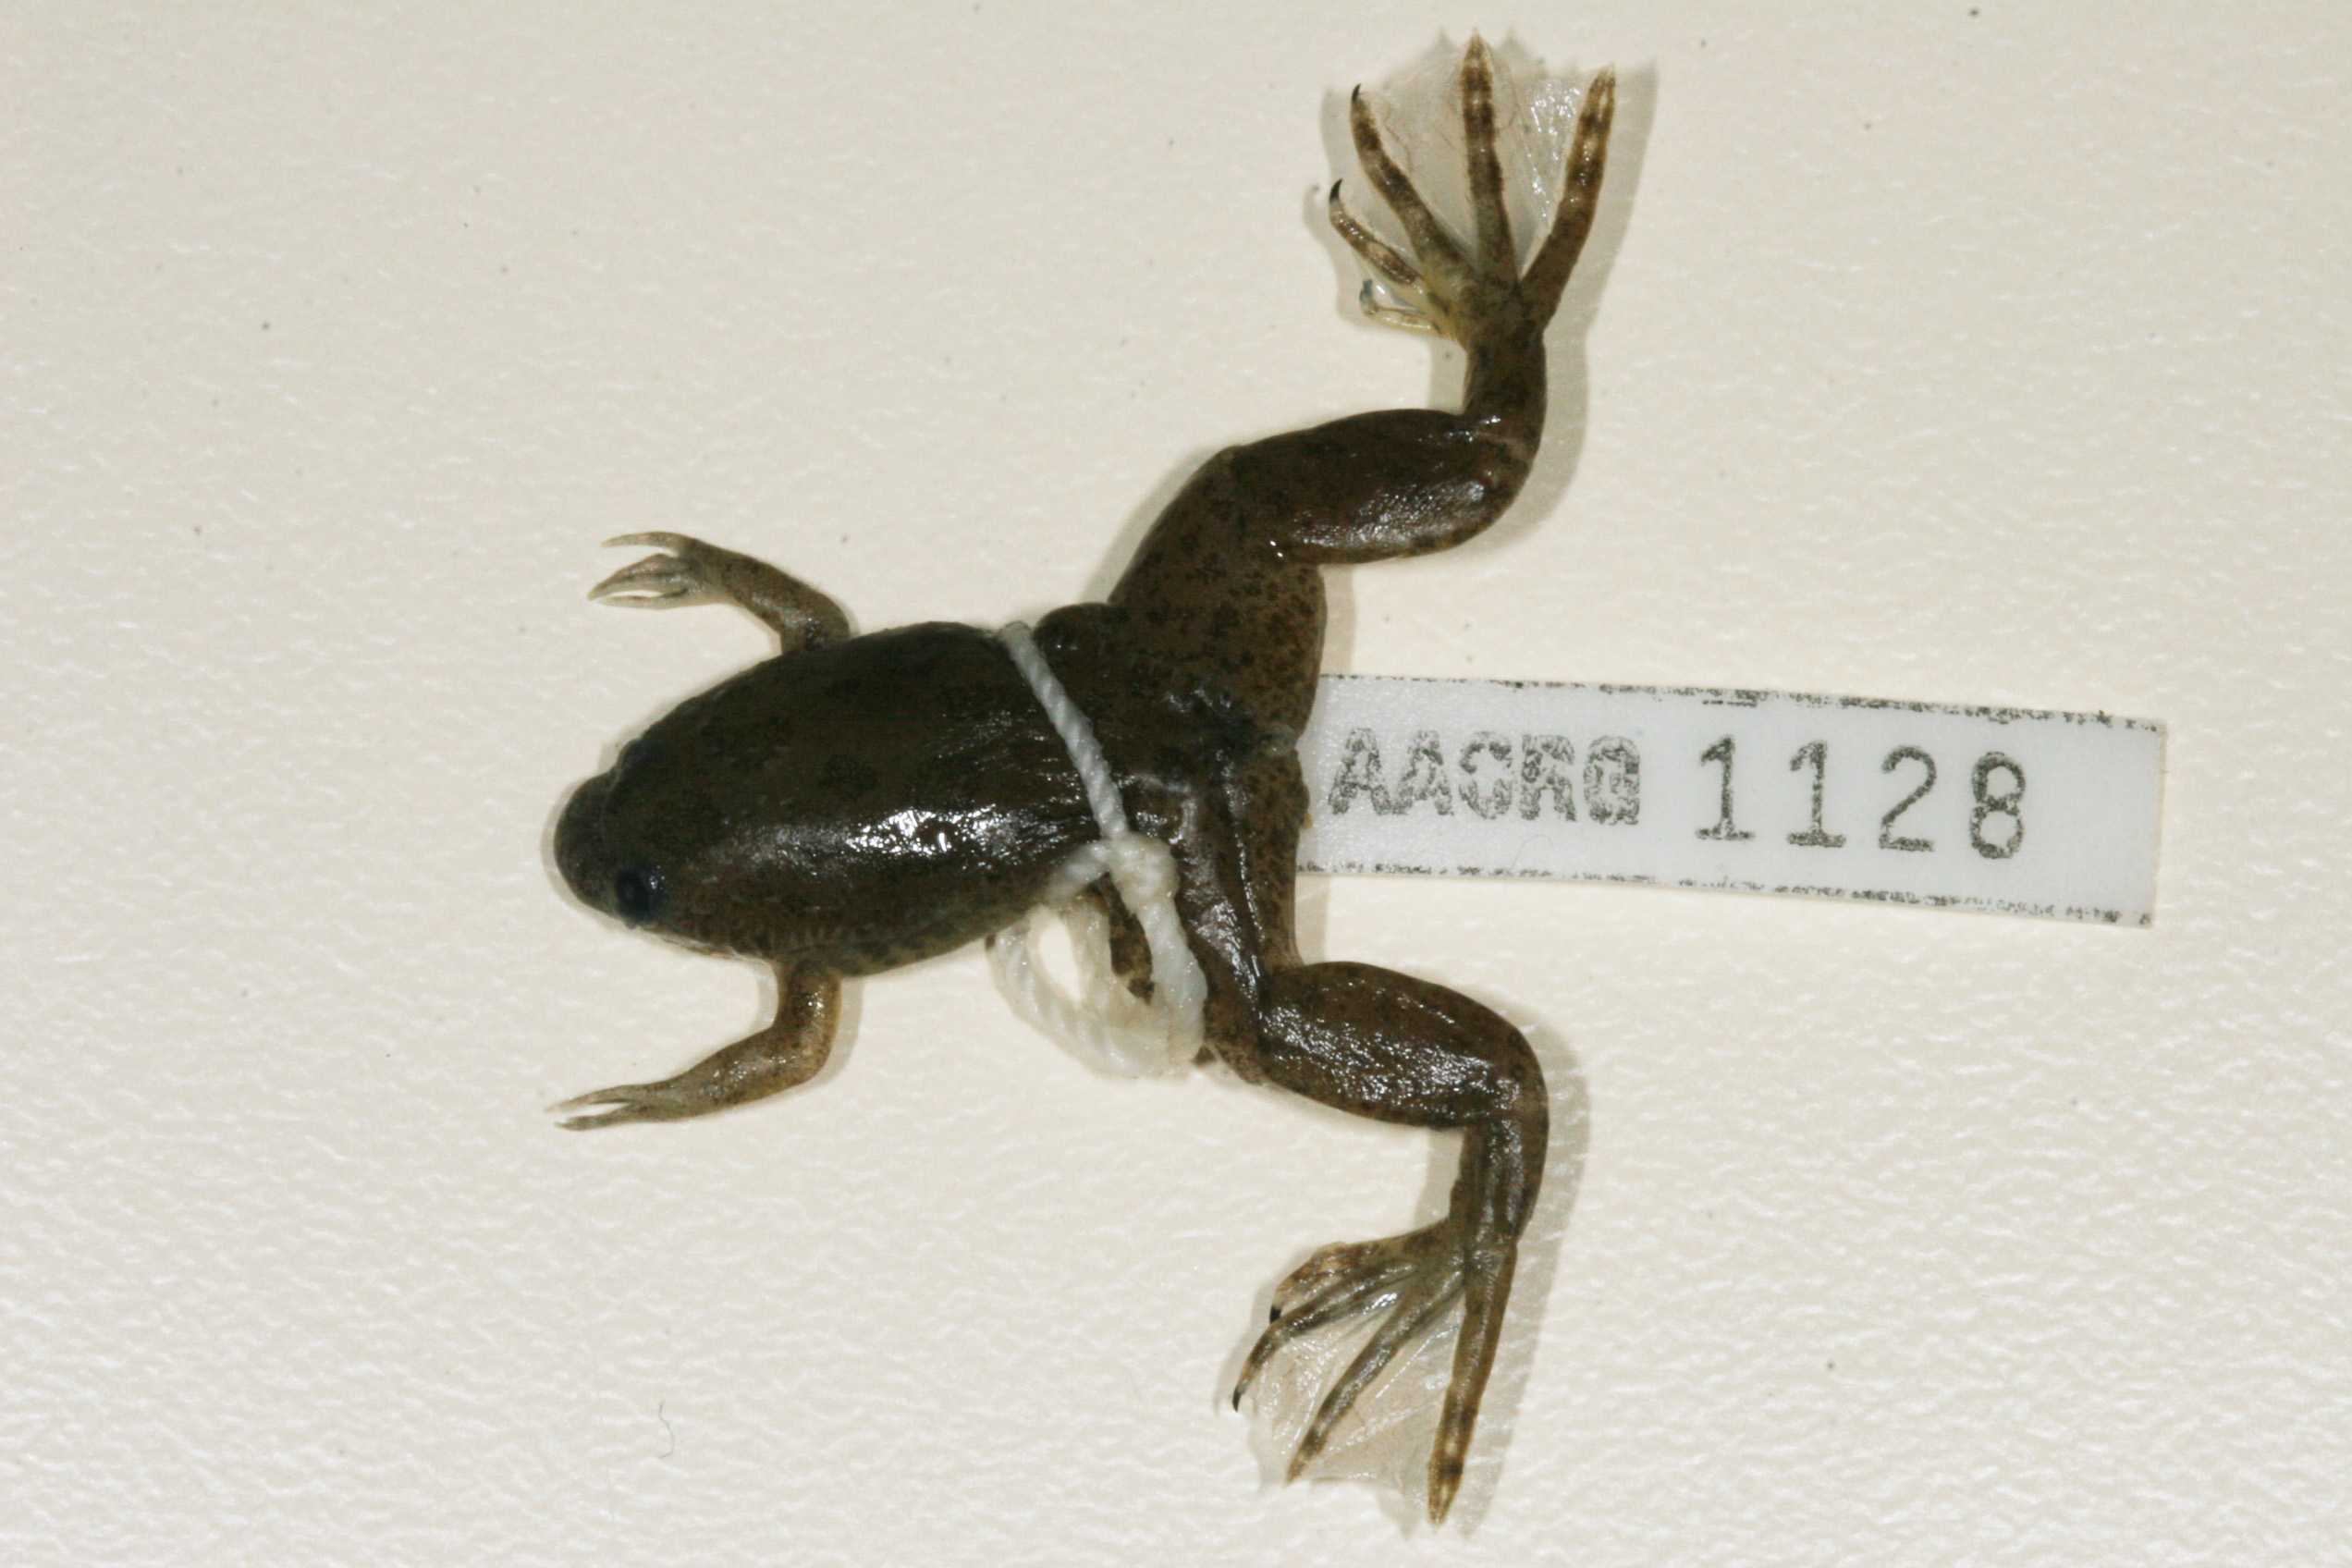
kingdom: Animalia
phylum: Chordata
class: Amphibia
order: Anura
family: Pipidae
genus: Xenopus
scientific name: Xenopus poweri
